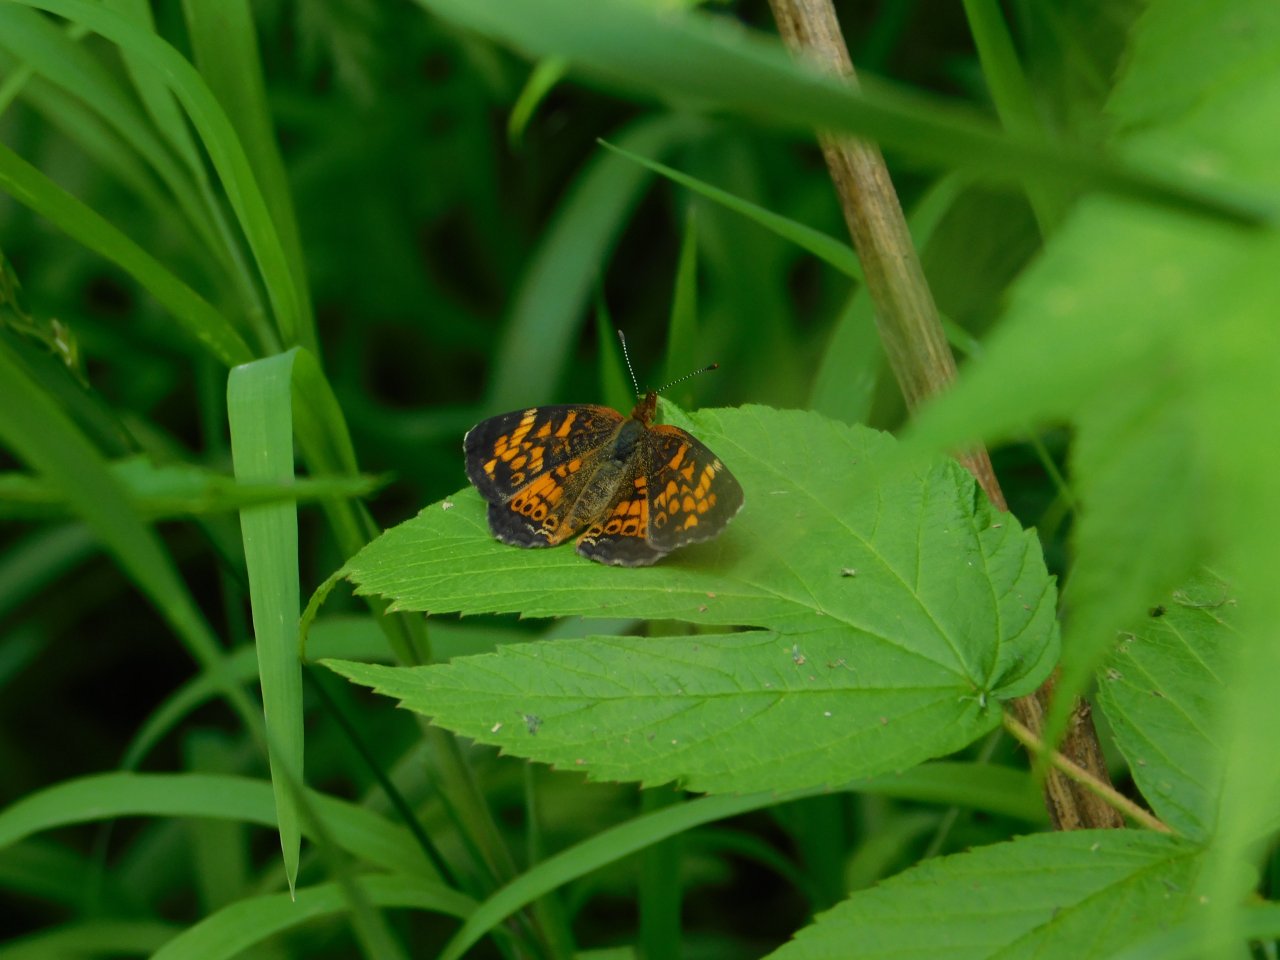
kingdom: Animalia
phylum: Arthropoda
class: Insecta
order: Lepidoptera
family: Nymphalidae
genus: Phyciodes
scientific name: Phyciodes tharos
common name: Northern Crescent
